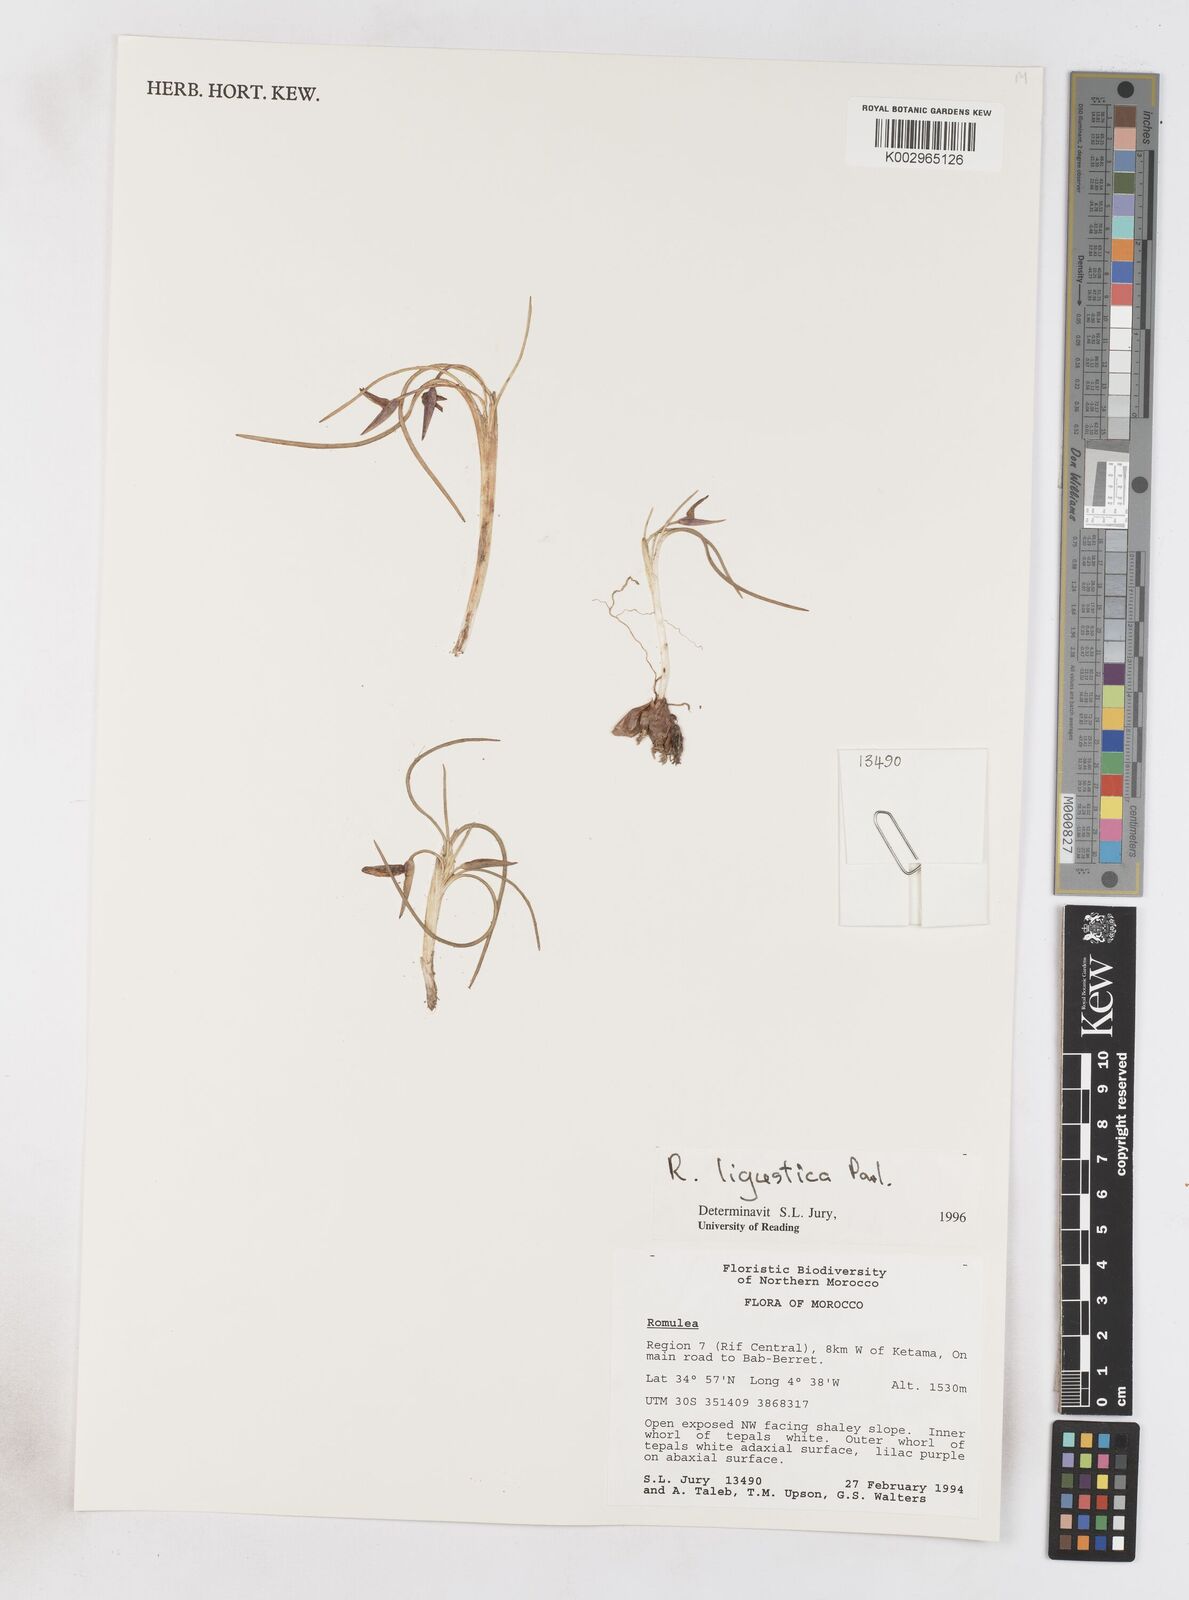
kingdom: Plantae
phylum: Tracheophyta
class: Liliopsida
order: Asparagales
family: Iridaceae
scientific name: Iridaceae
